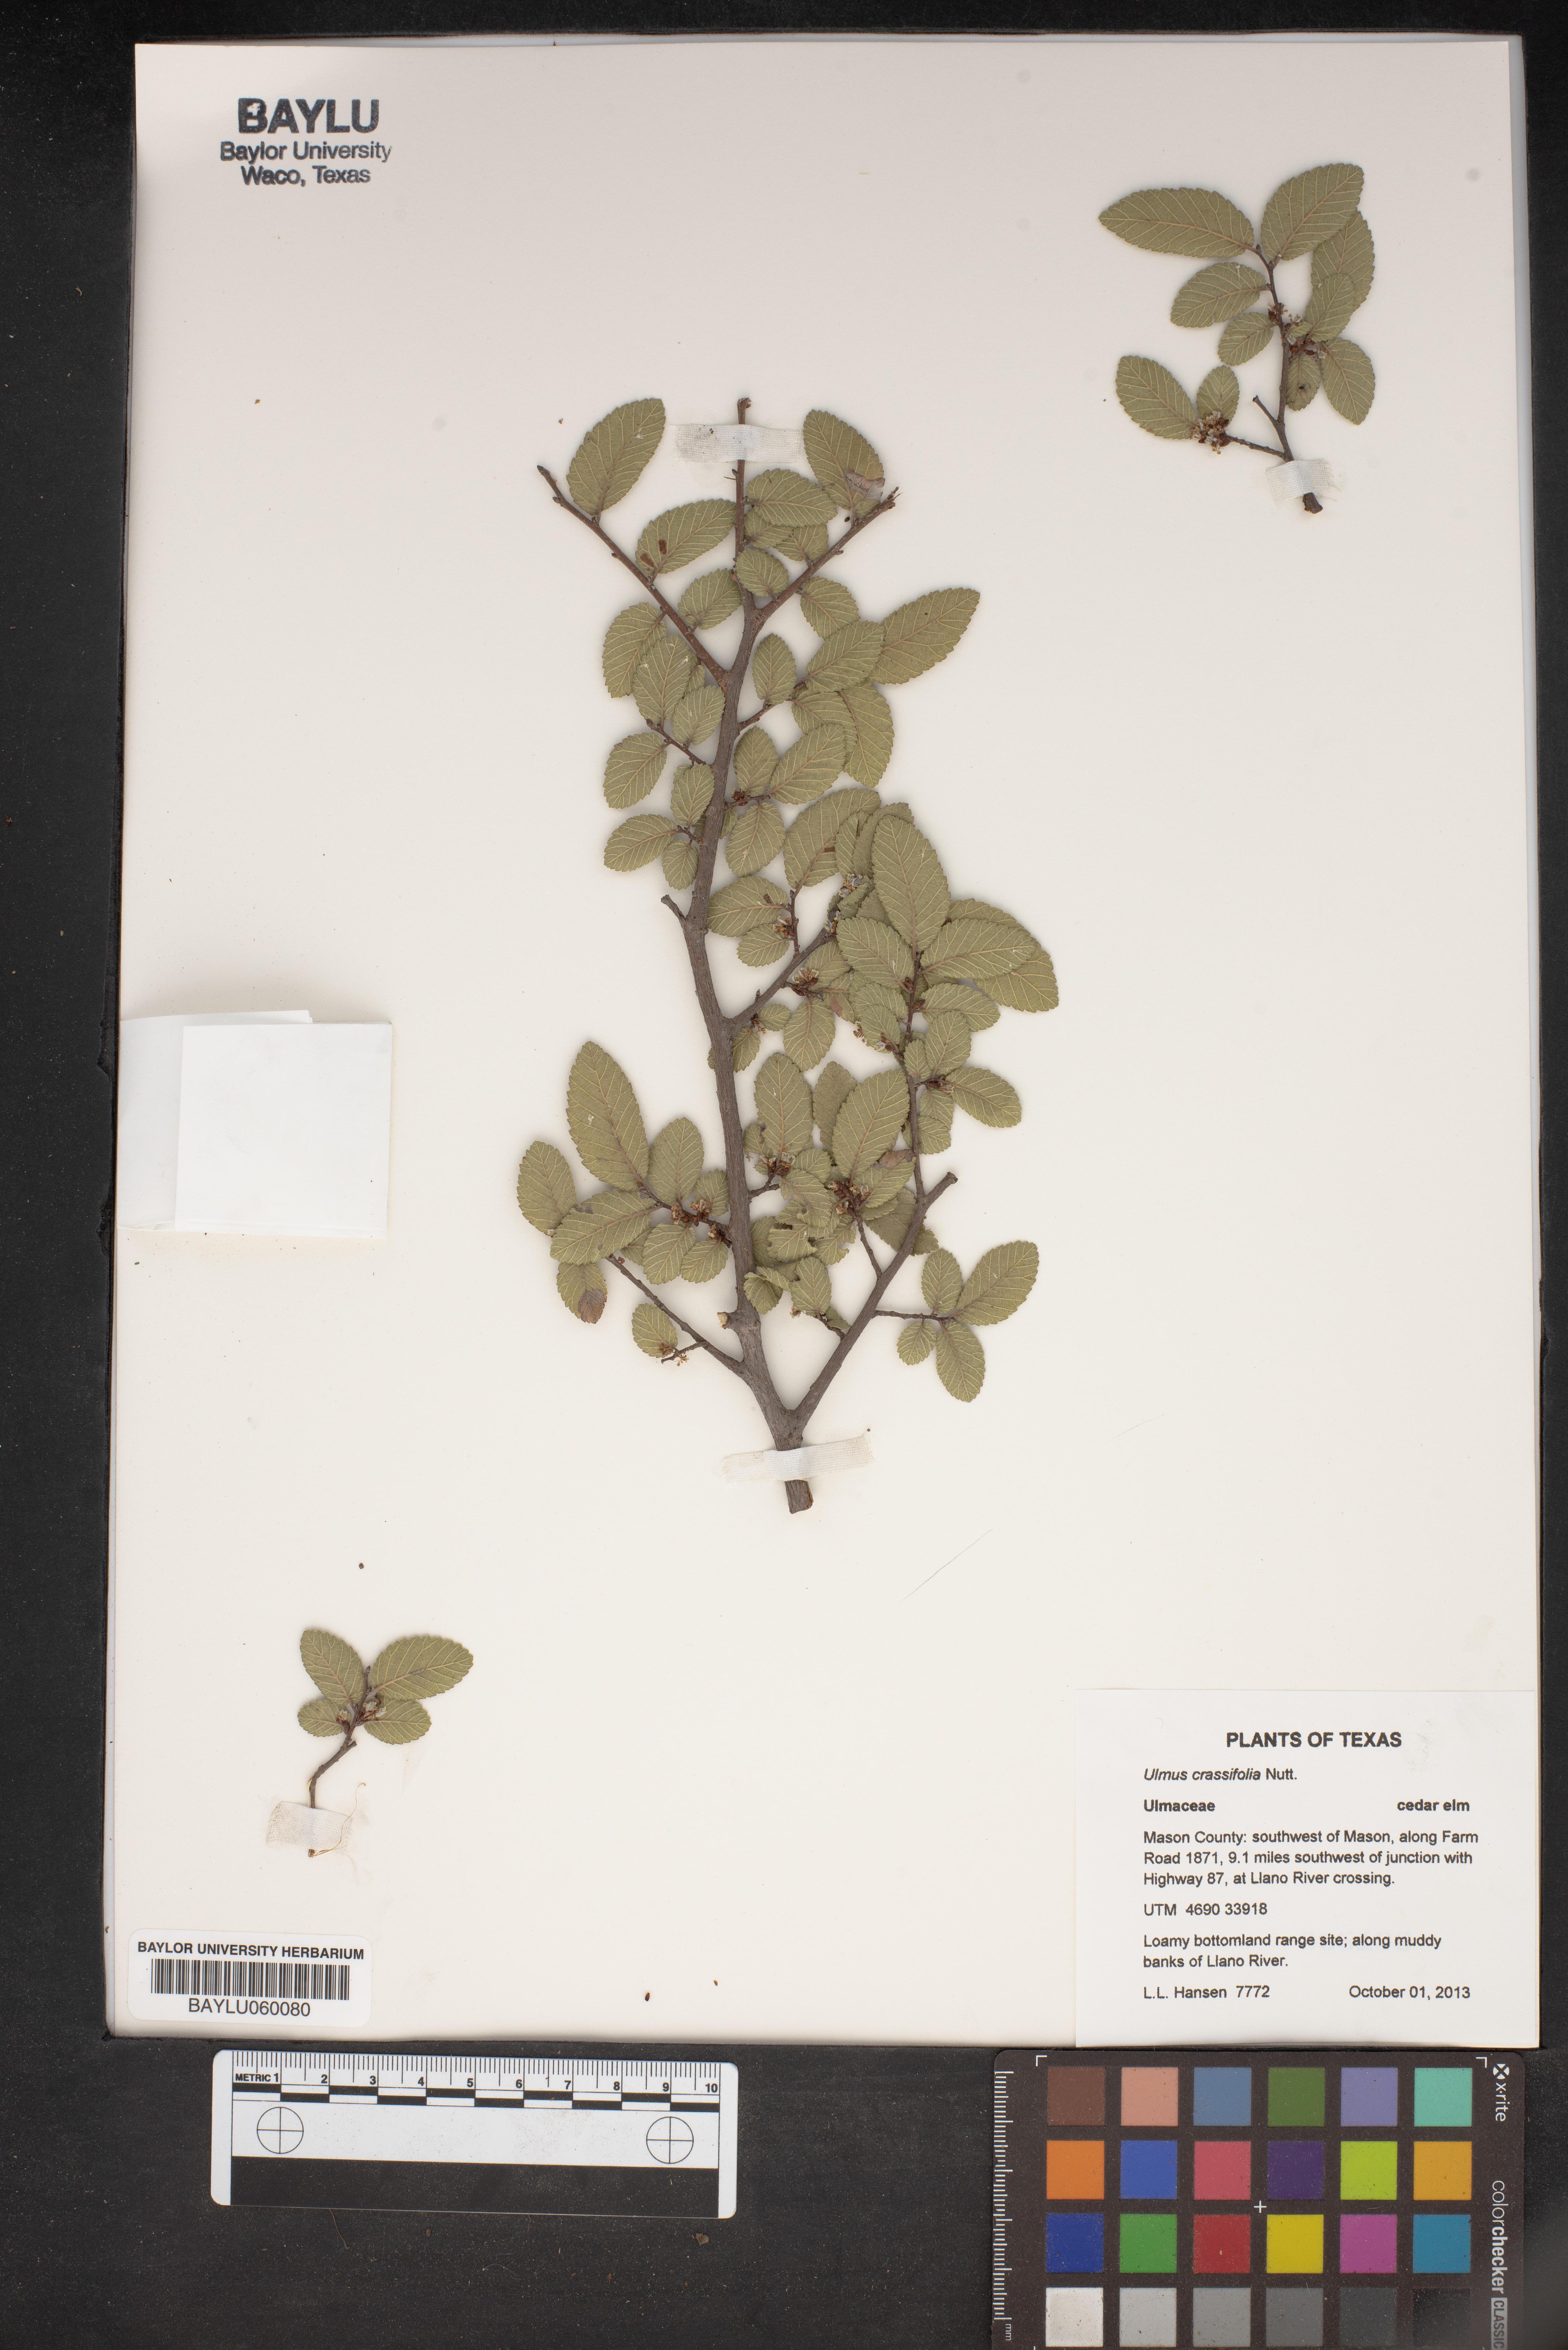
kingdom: Plantae
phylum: Tracheophyta
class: Magnoliopsida
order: Rosales
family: Ulmaceae
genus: Ulmus
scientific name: Ulmus crassifolia
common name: Basket elm
